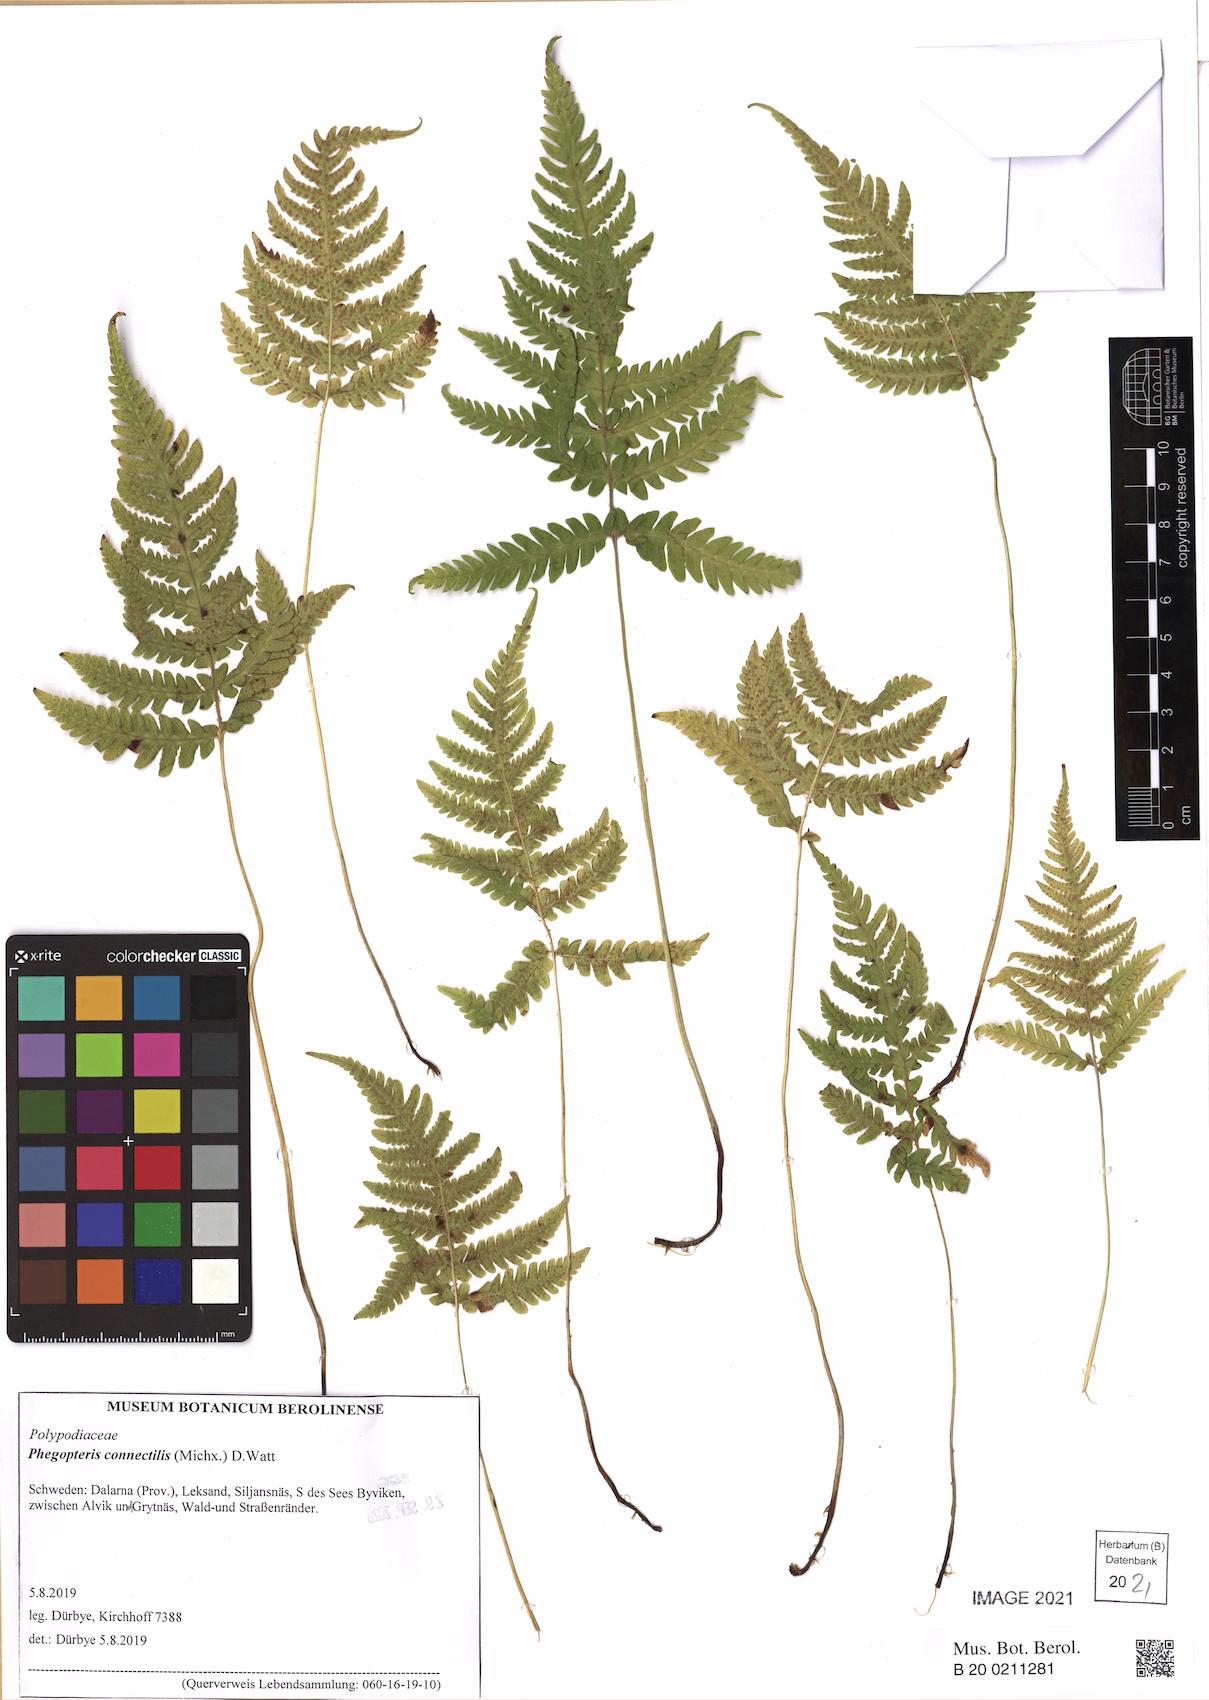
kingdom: Plantae
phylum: Tracheophyta
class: Polypodiopsida
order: Polypodiales
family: Thelypteridaceae
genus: Phegopteris
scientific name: Phegopteris connectilis
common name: Beech fern
